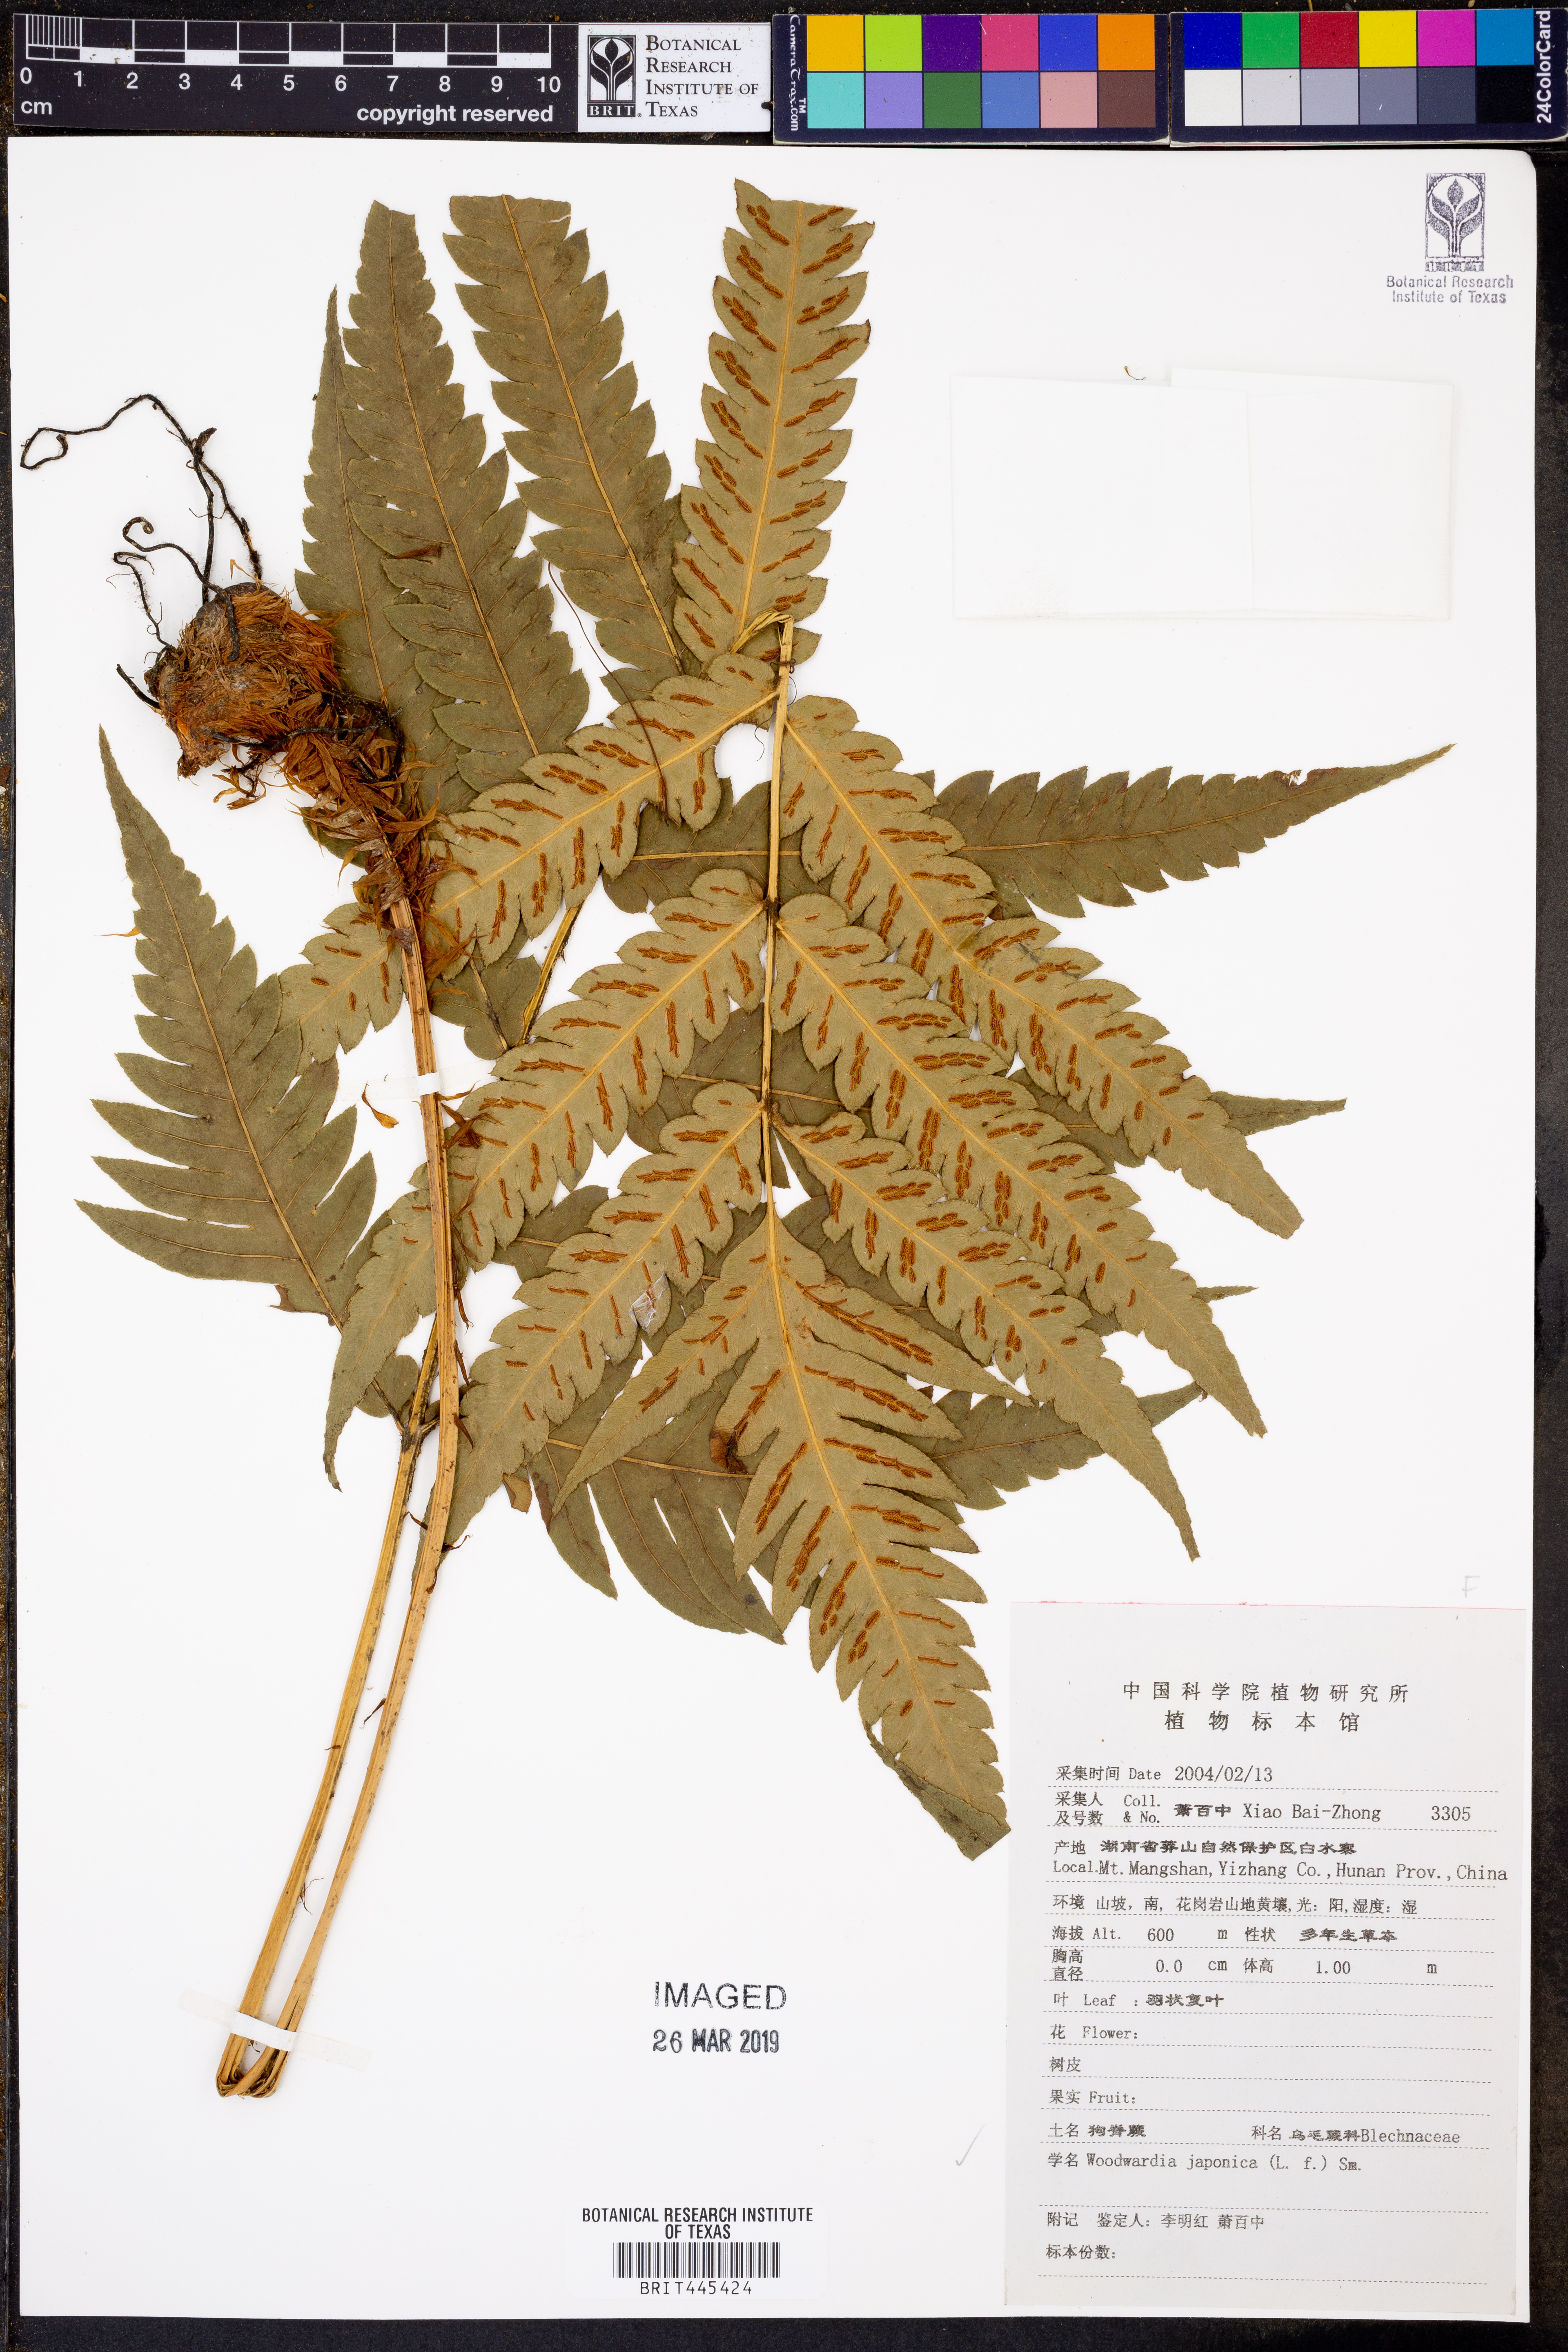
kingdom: Plantae
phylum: Tracheophyta
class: Polypodiopsida
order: Polypodiales
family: Blechnaceae
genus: Woodwardia
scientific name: Woodwardia japonica
